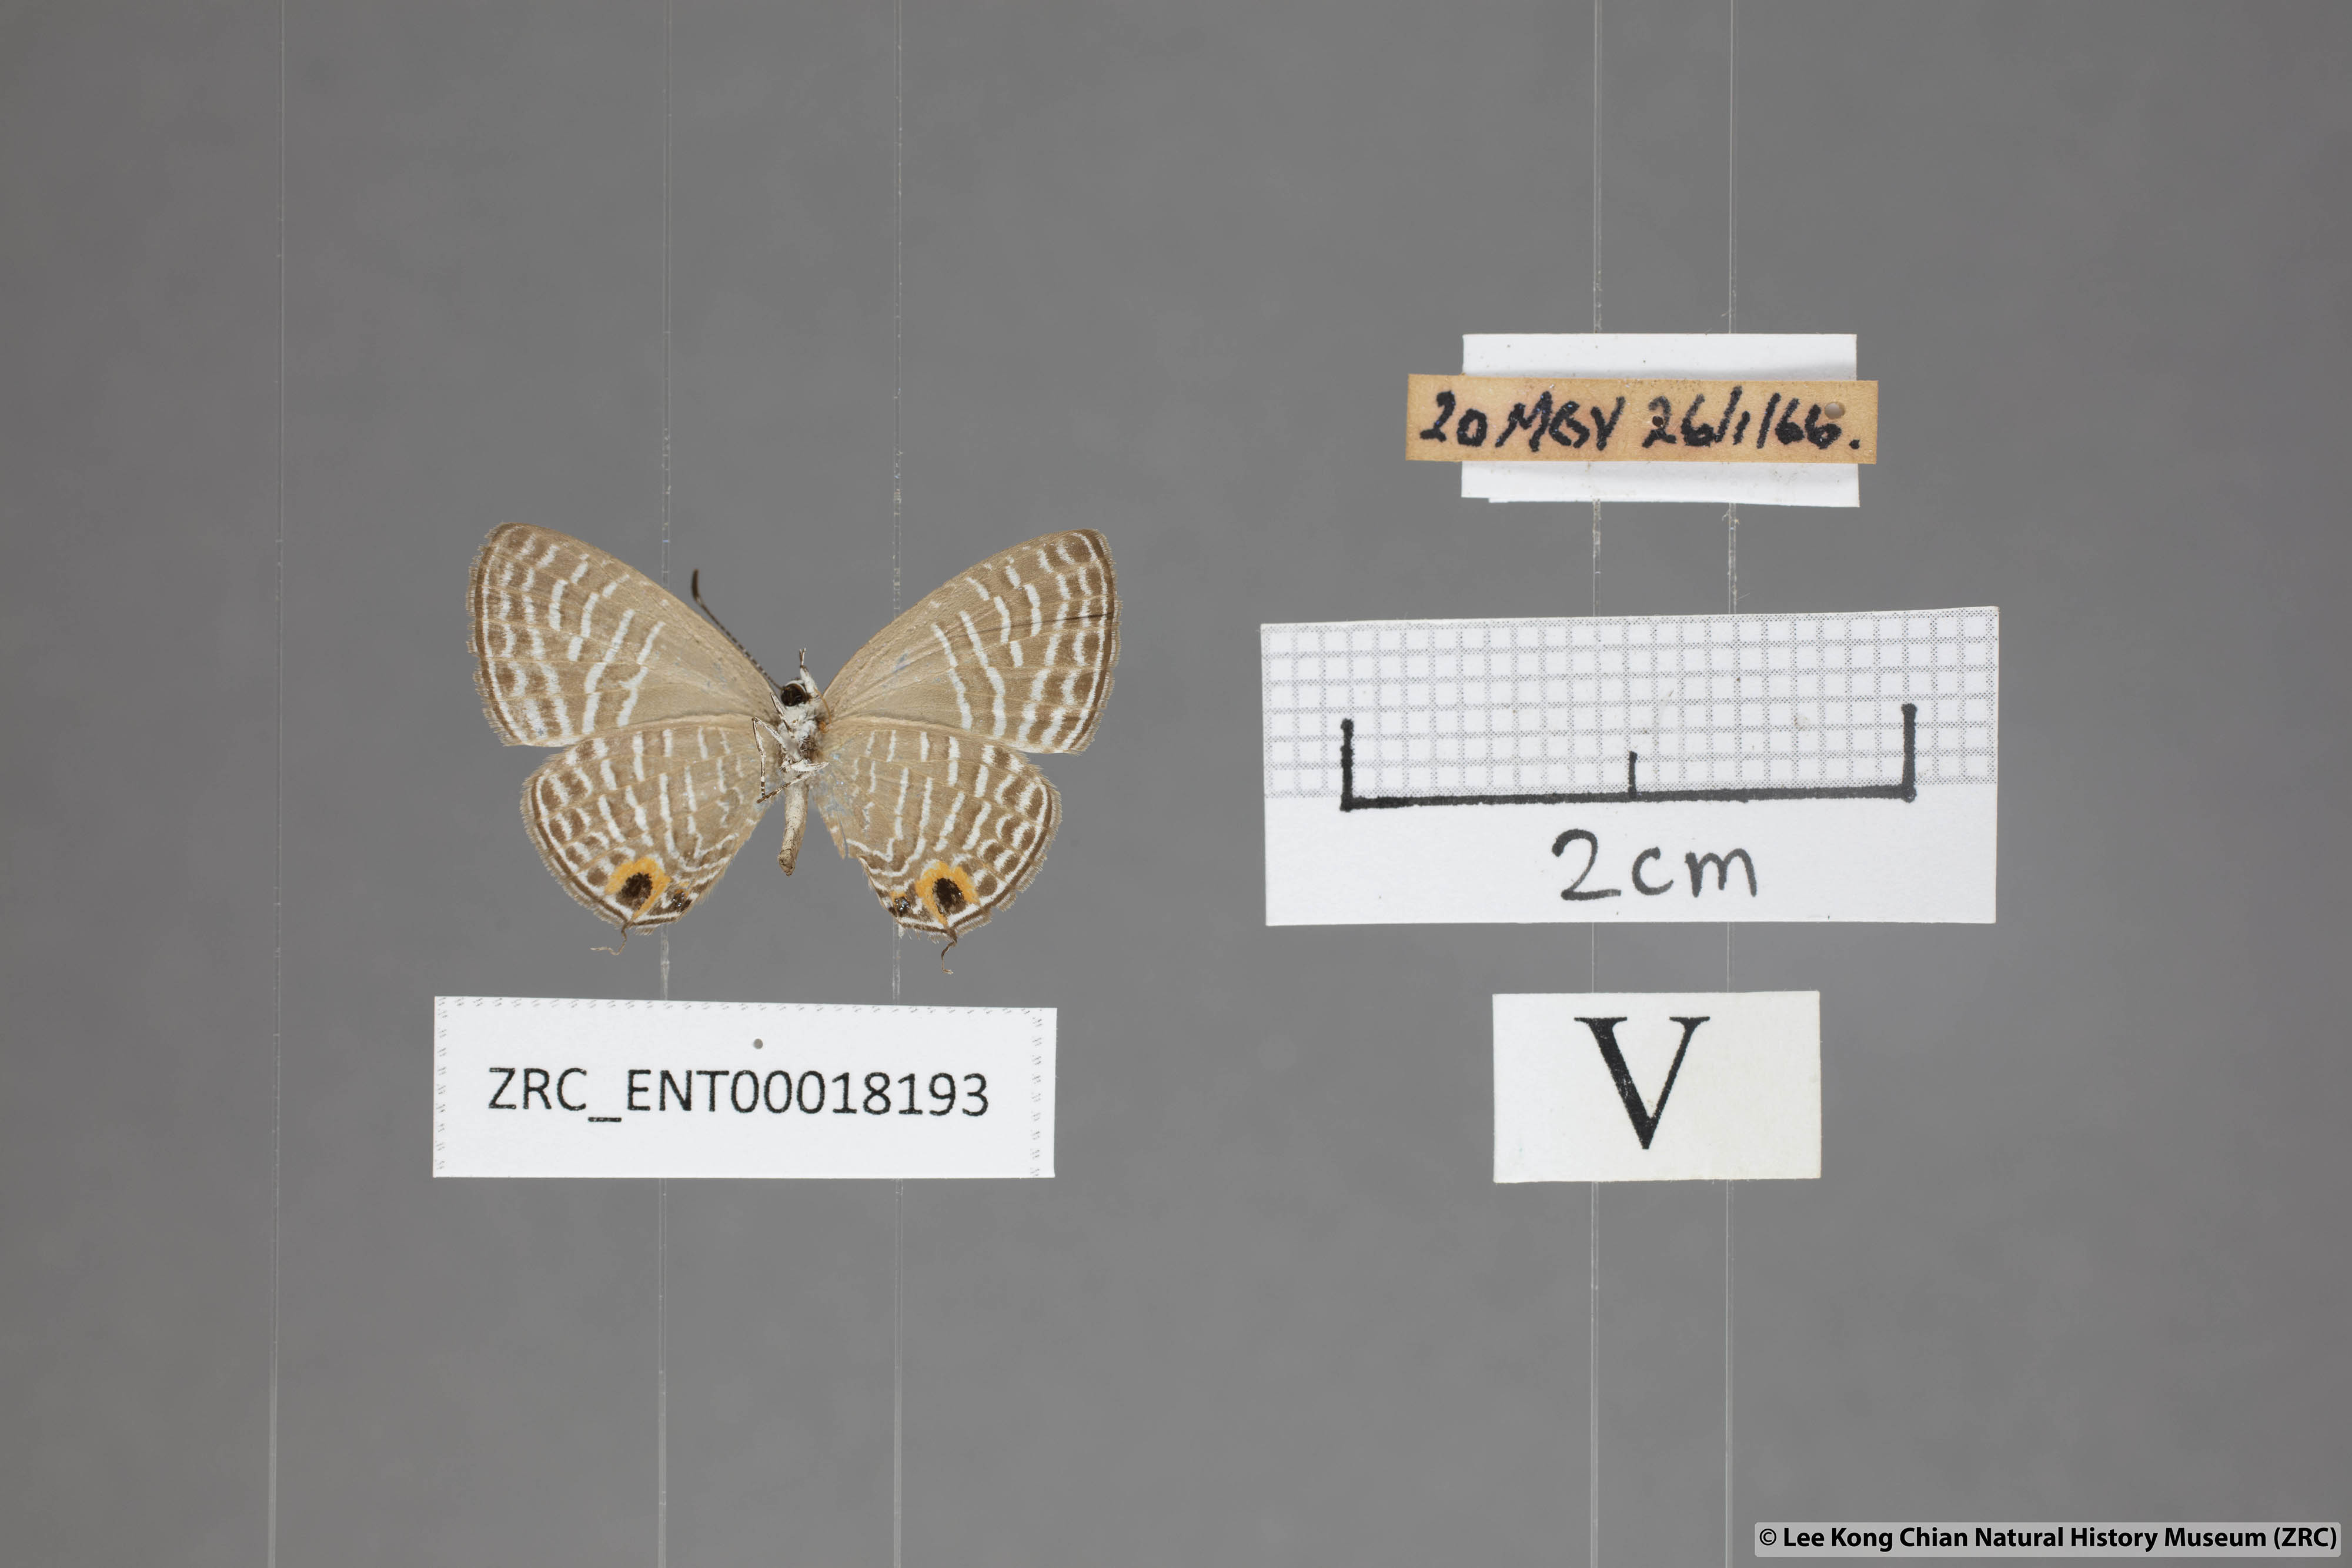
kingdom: Animalia
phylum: Arthropoda
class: Insecta
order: Lepidoptera
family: Lycaenidae
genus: Jamides
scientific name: Jamides talinga
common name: Lesser cerulean
